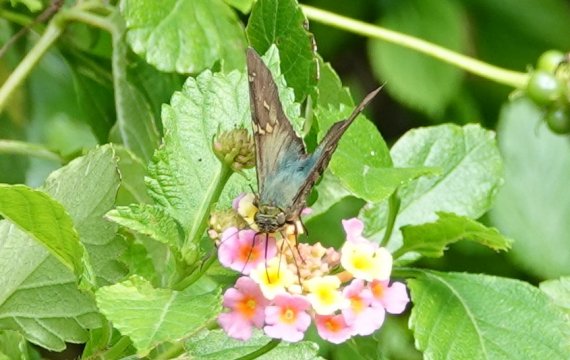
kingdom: Animalia
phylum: Arthropoda
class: Insecta
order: Lepidoptera
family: Hesperiidae
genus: Urbanus
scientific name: Urbanus proteus
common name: Long-tailed Skipper
